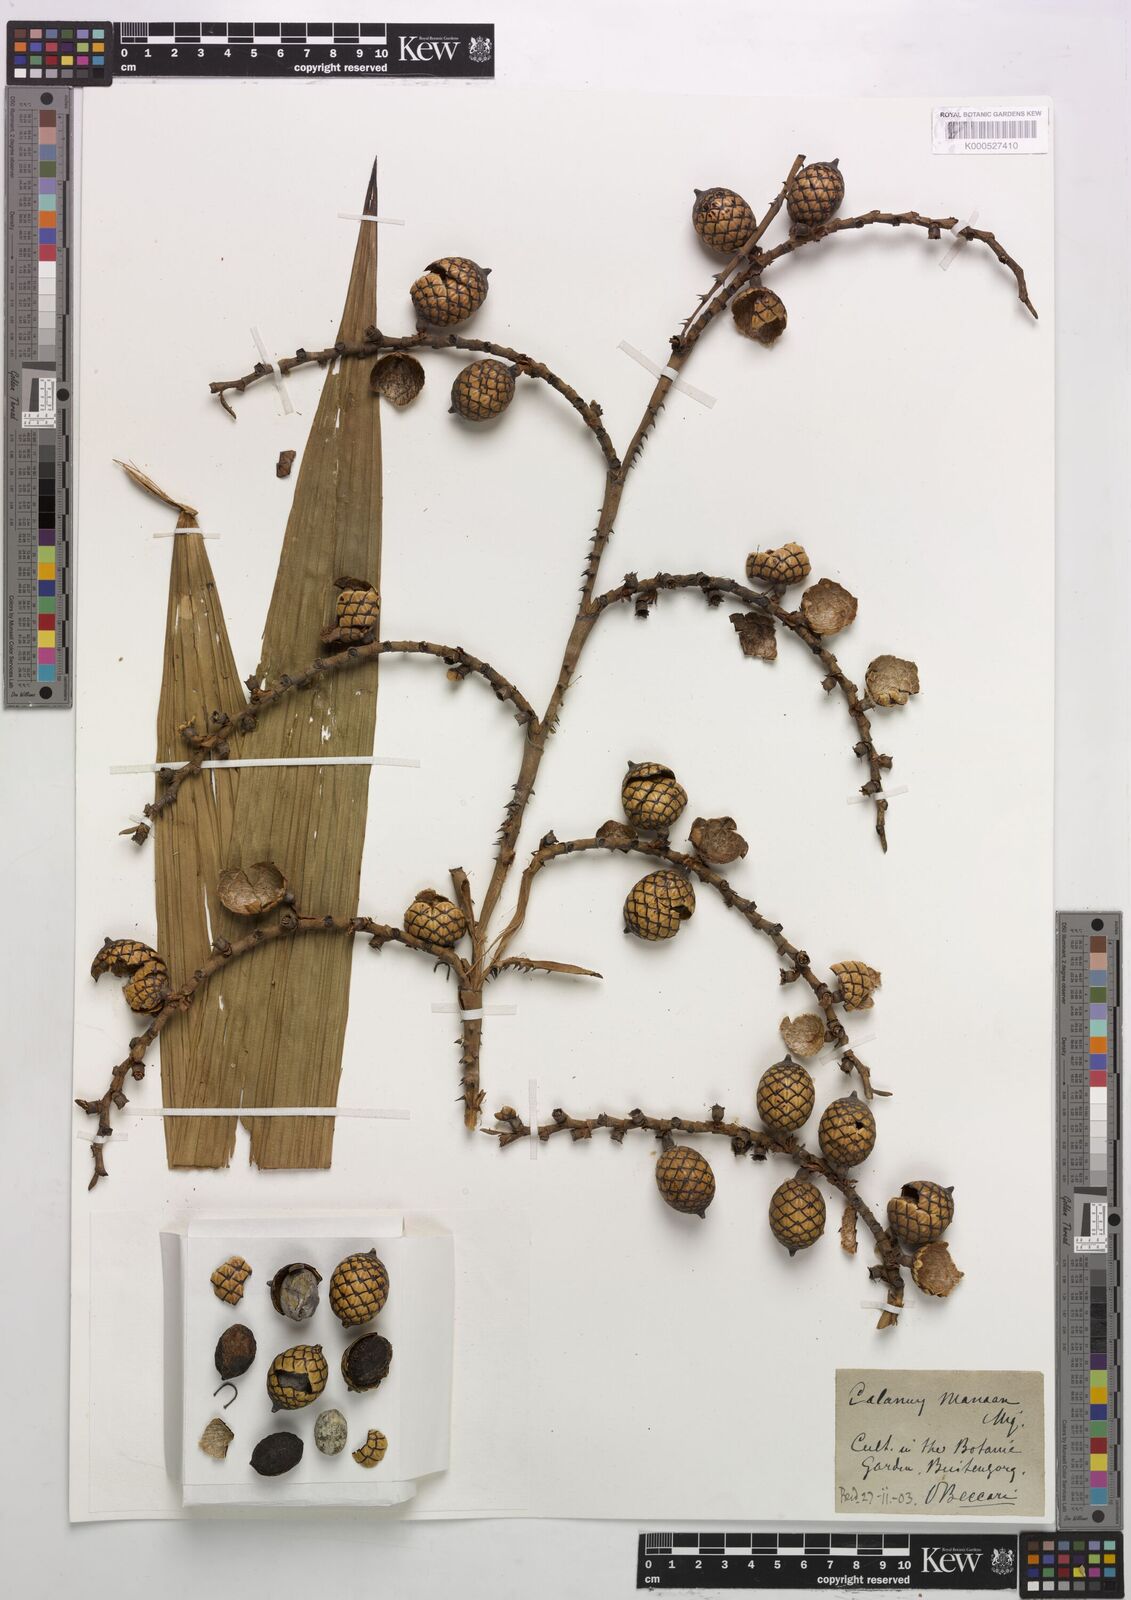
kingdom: Plantae
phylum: Tracheophyta
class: Liliopsida
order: Arecales
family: Arecaceae
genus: Calamus
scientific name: Calamus manan
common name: Rattan
